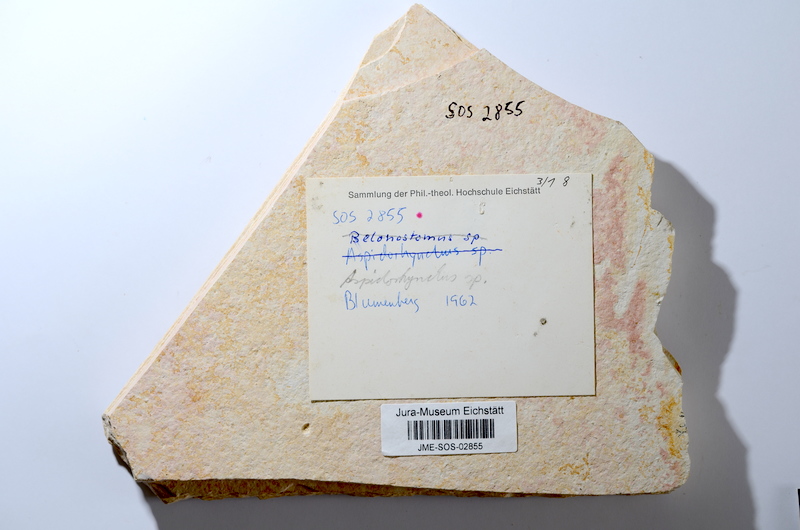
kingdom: Animalia
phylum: Chordata
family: Aspidorhynchidae
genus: Aspidorhynchus
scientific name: Aspidorhynchus acutirostris
